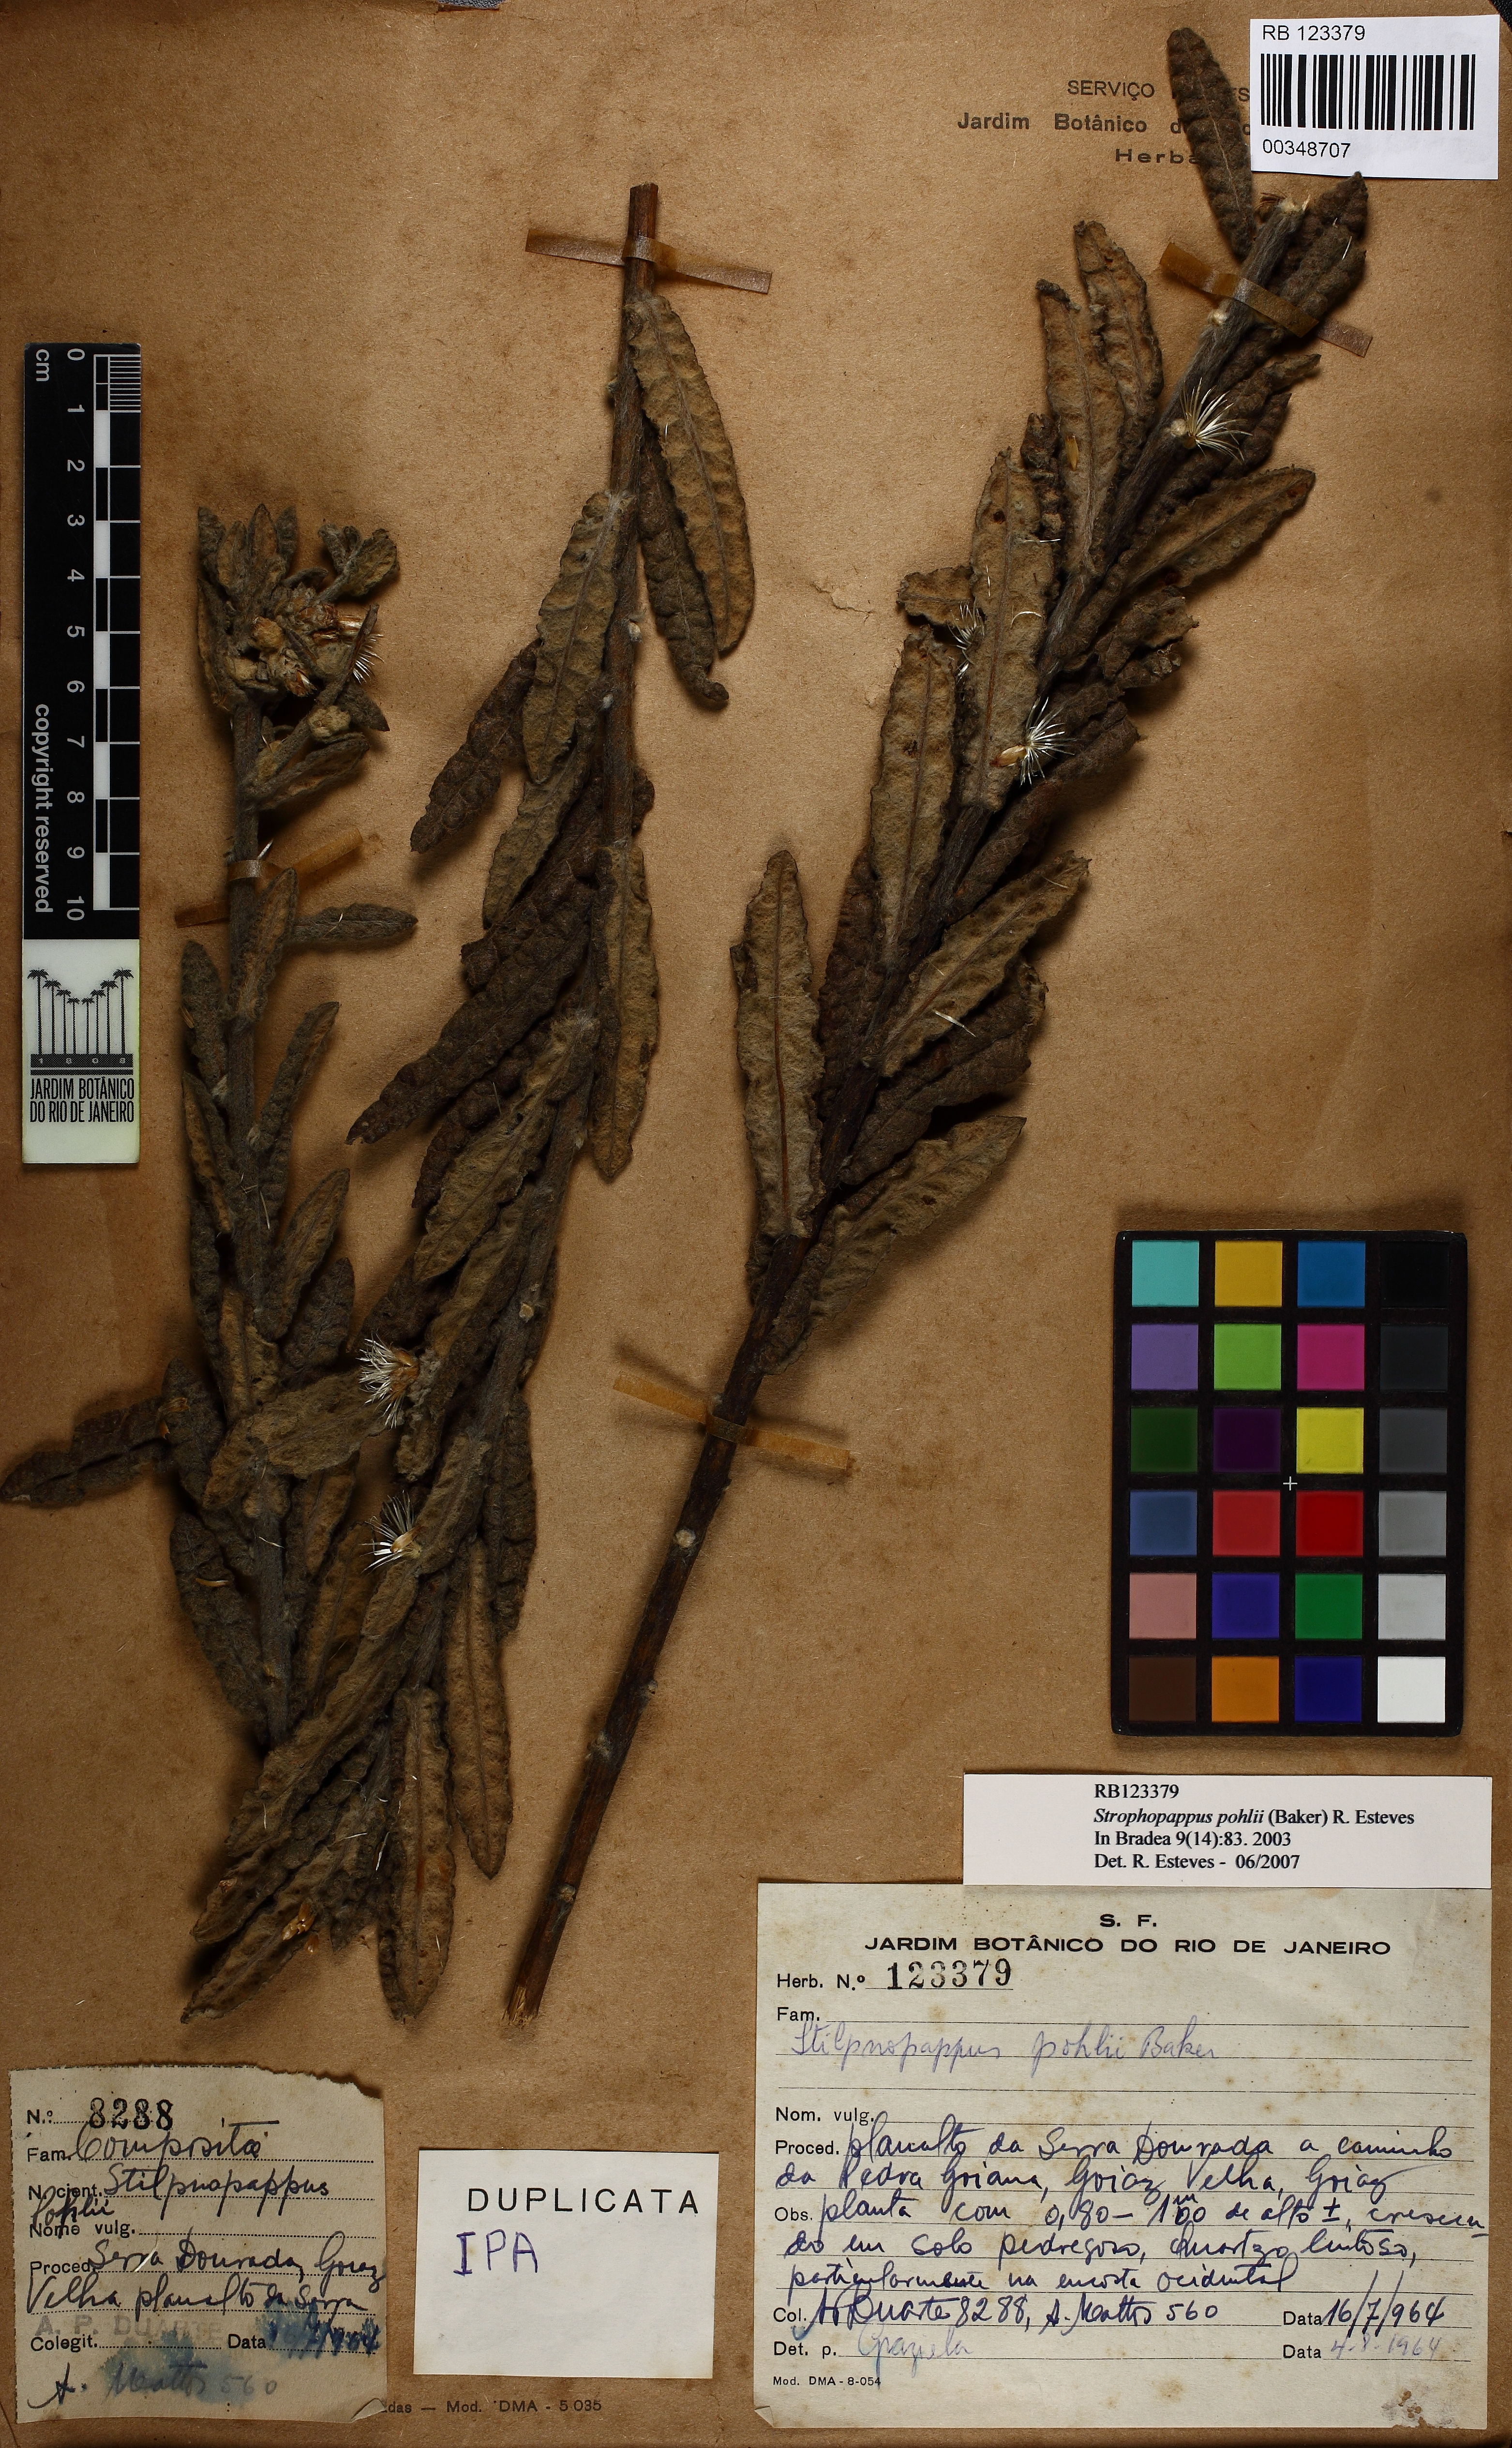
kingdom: Plantae
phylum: Tracheophyta
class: Magnoliopsida
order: Asterales
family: Asteraceae
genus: Stilpnopappus
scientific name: Stilpnopappus pohlii
